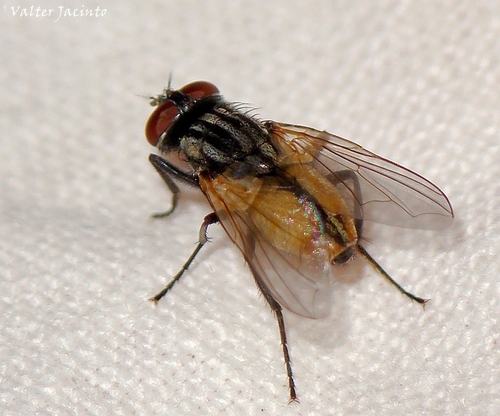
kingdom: Animalia
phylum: Arthropoda
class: Insecta
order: Diptera
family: Muscidae
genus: Musca
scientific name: Musca domestica
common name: House fly
